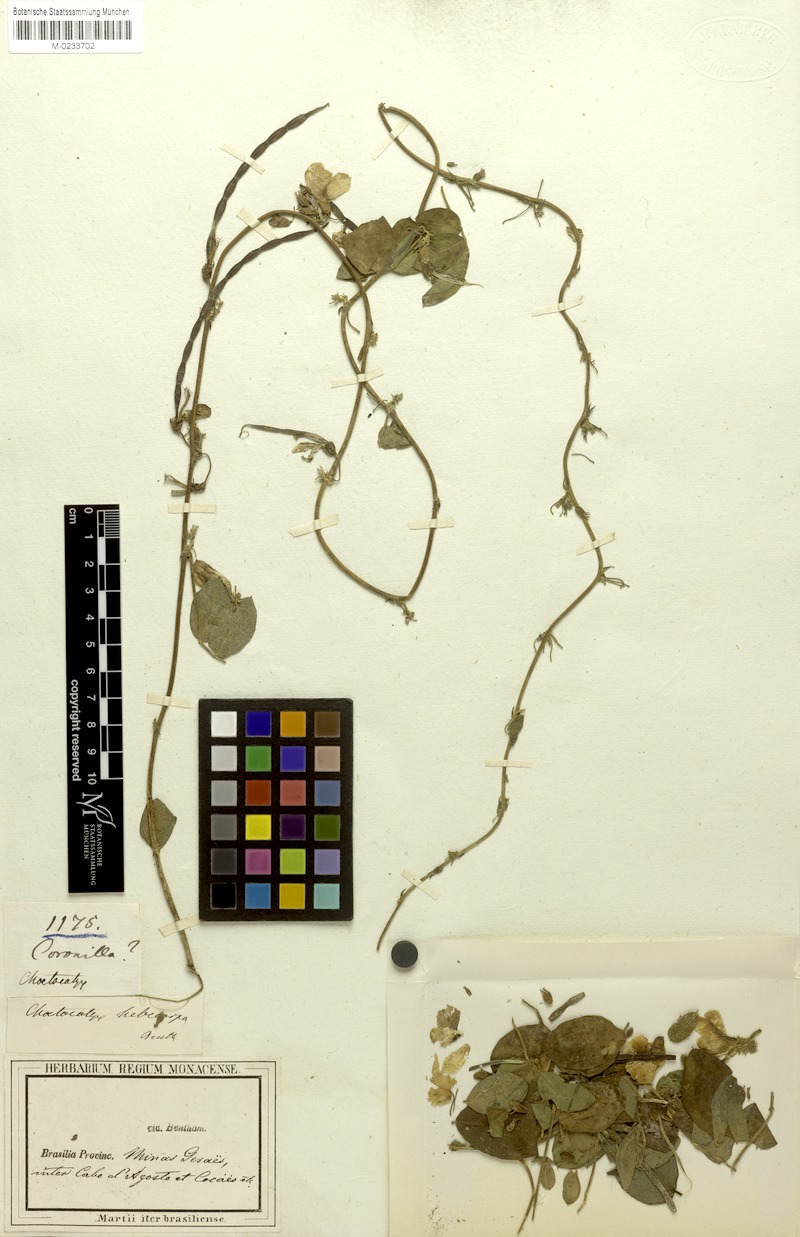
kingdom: Plantae
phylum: Tracheophyta
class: Magnoliopsida
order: Fabales
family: Fabaceae
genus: Nissolia
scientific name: Nissolia longiflora
